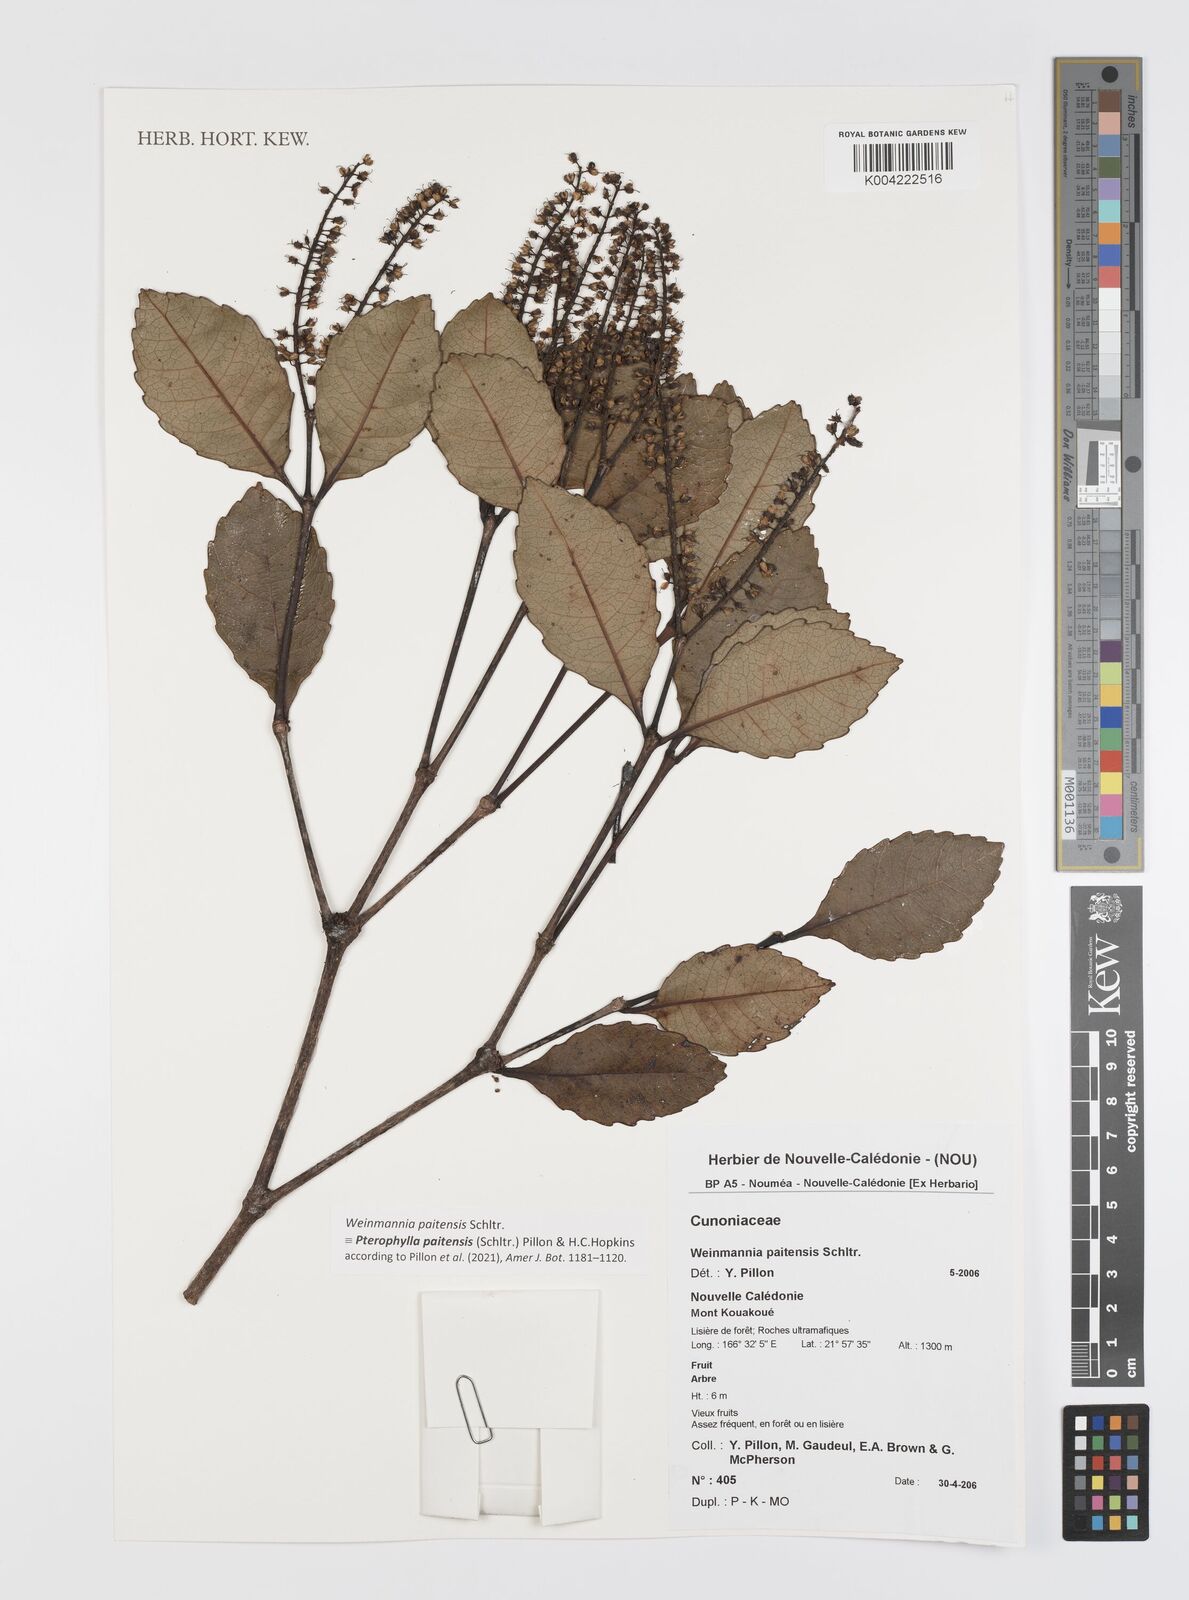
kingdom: Plantae
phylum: Tracheophyta
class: Magnoliopsida
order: Oxalidales
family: Cunoniaceae
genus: Pterophylla
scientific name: Pterophylla paitensis
